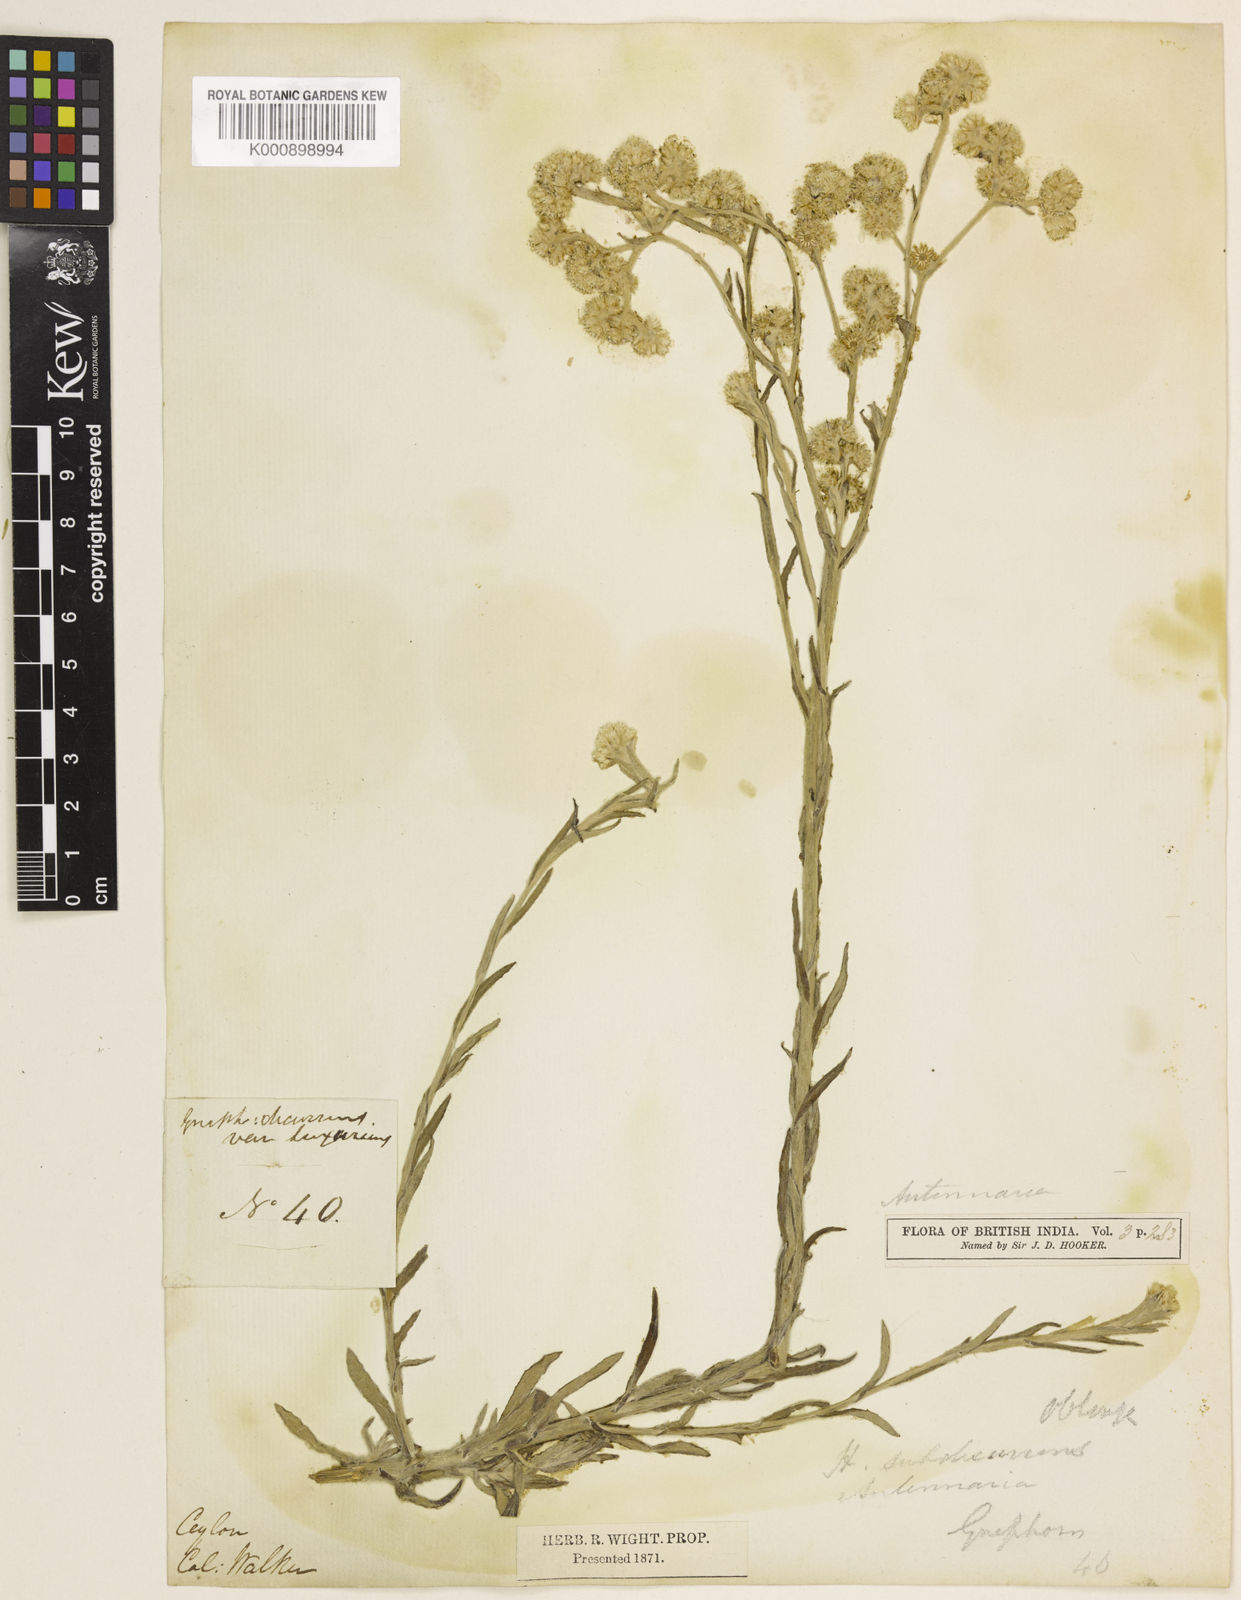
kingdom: Plantae
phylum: Tracheophyta
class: Magnoliopsida
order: Asterales
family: Asteraceae
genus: Anaphalis
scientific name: Anaphalis subdecurrens
